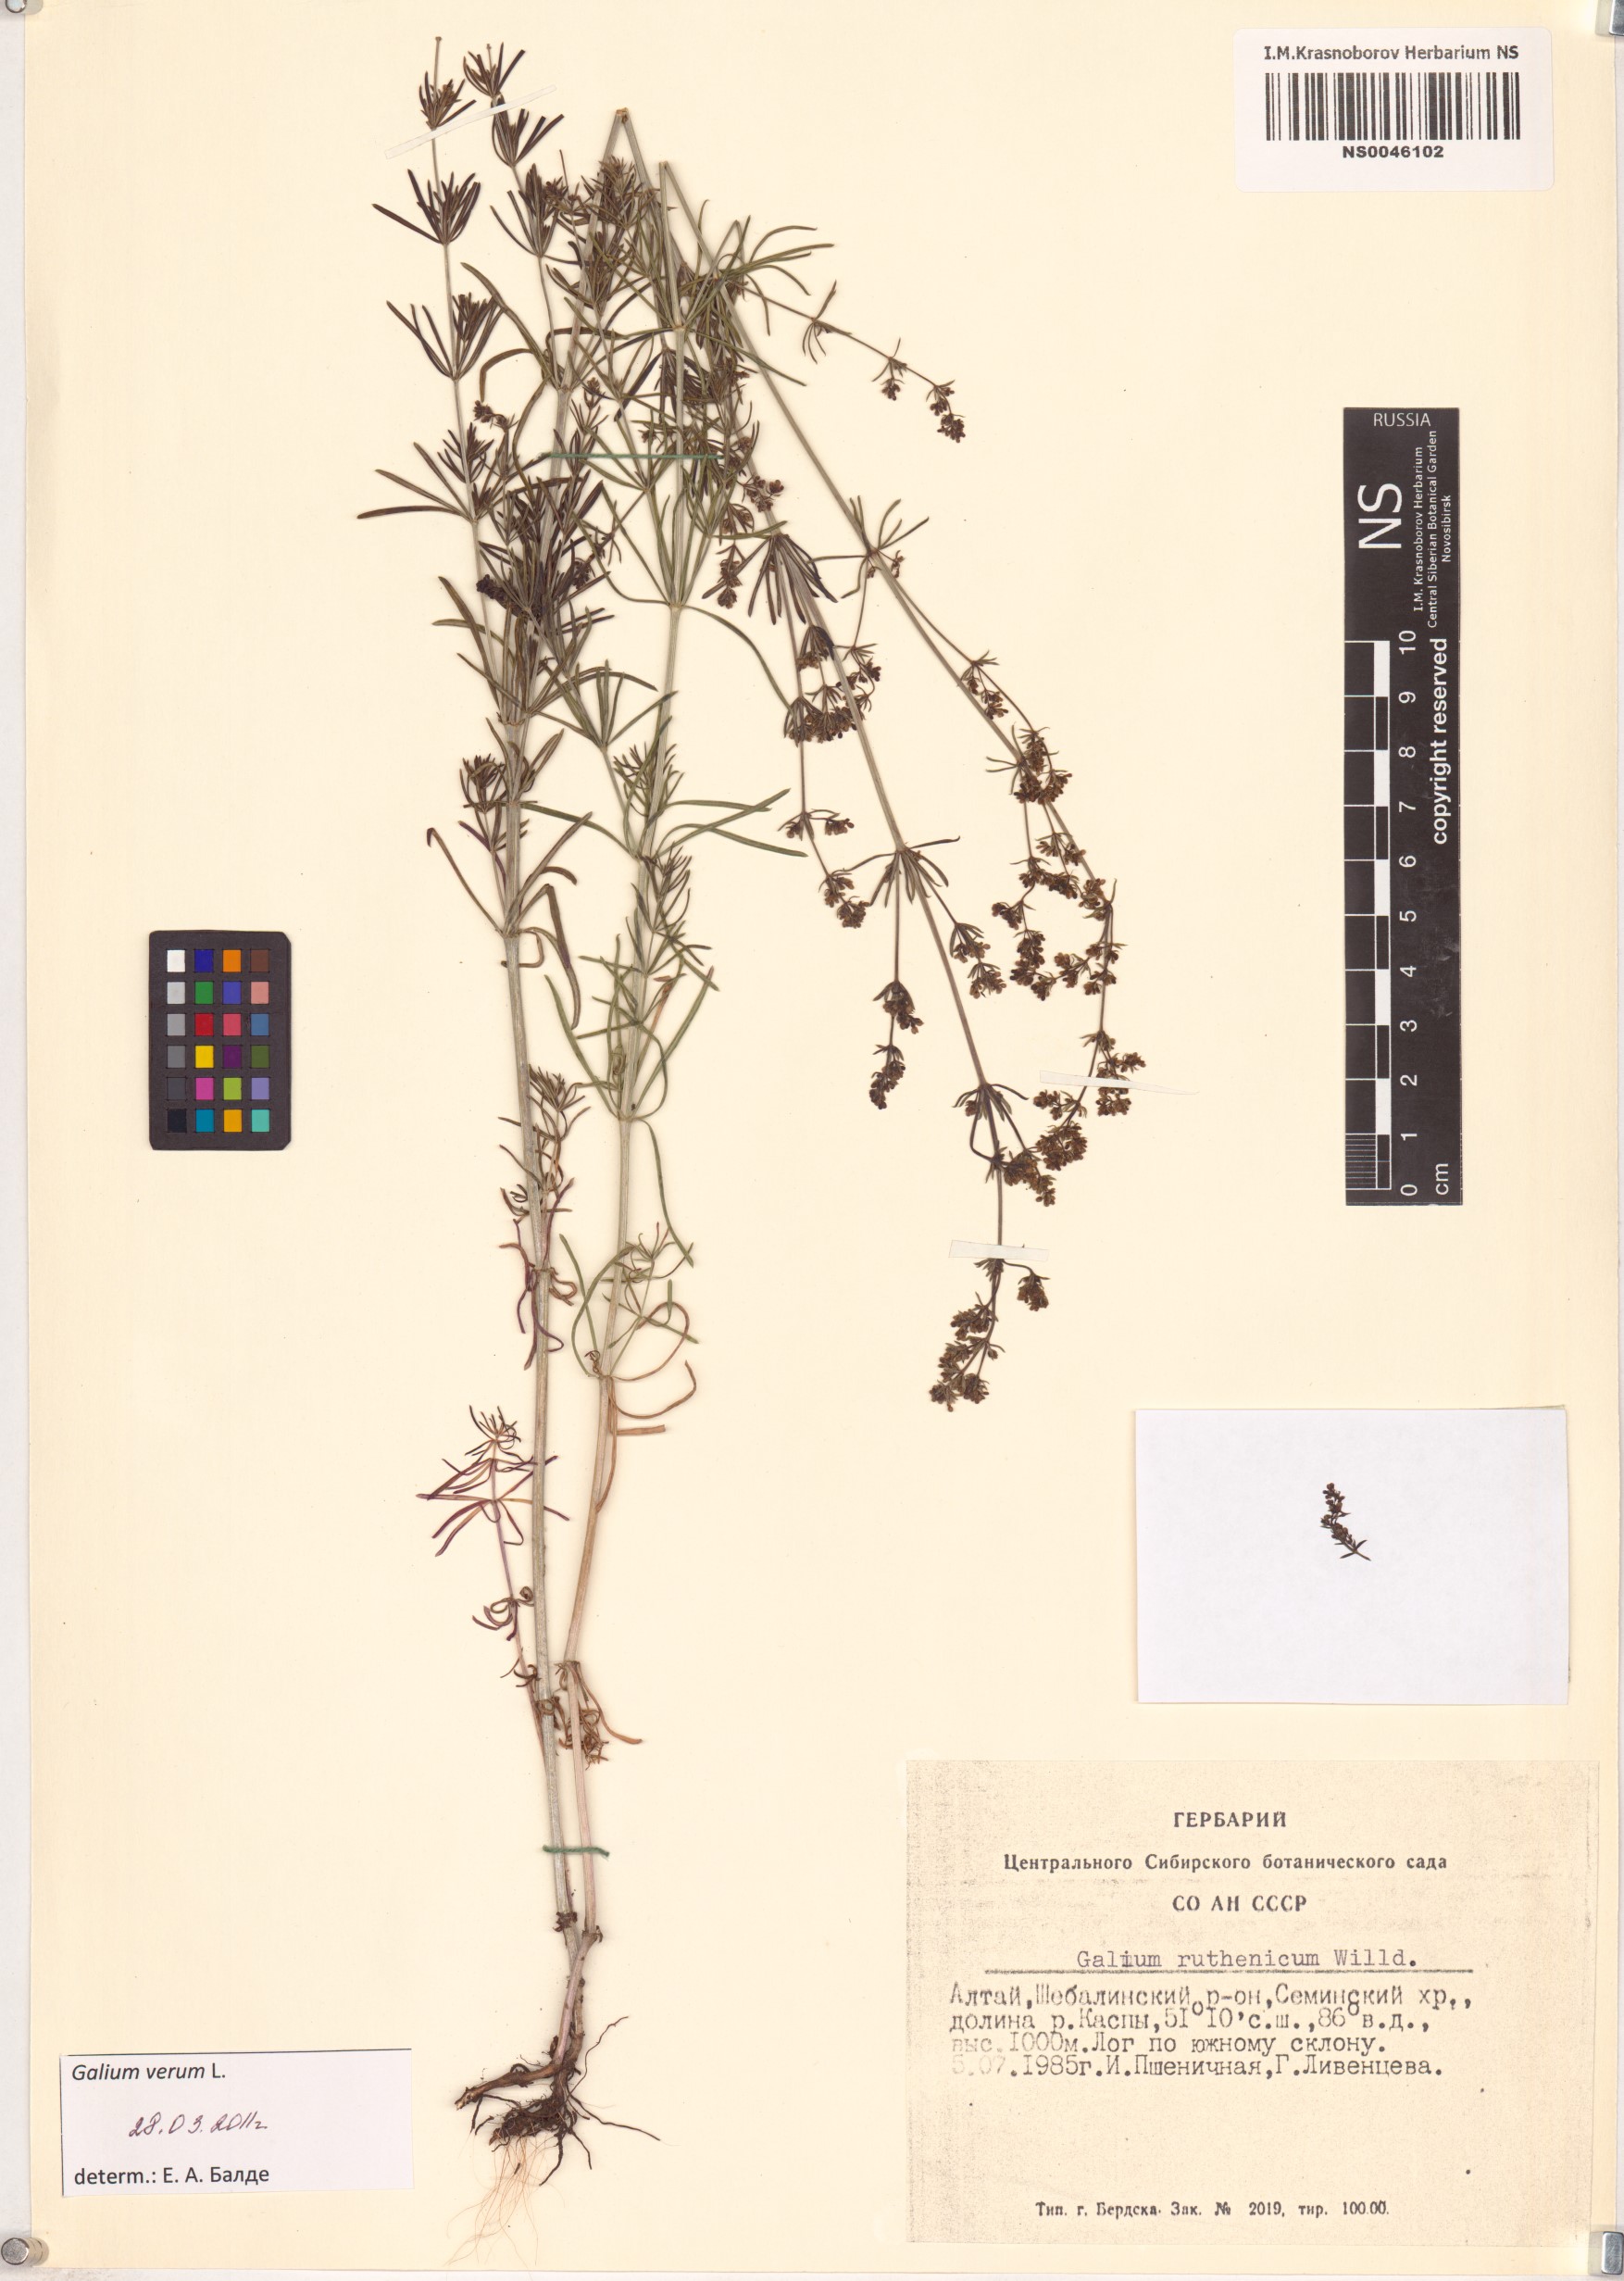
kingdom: Plantae
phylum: Tracheophyta
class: Magnoliopsida
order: Gentianales
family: Rubiaceae
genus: Galium
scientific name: Galium verum
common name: Lady's bedstraw
